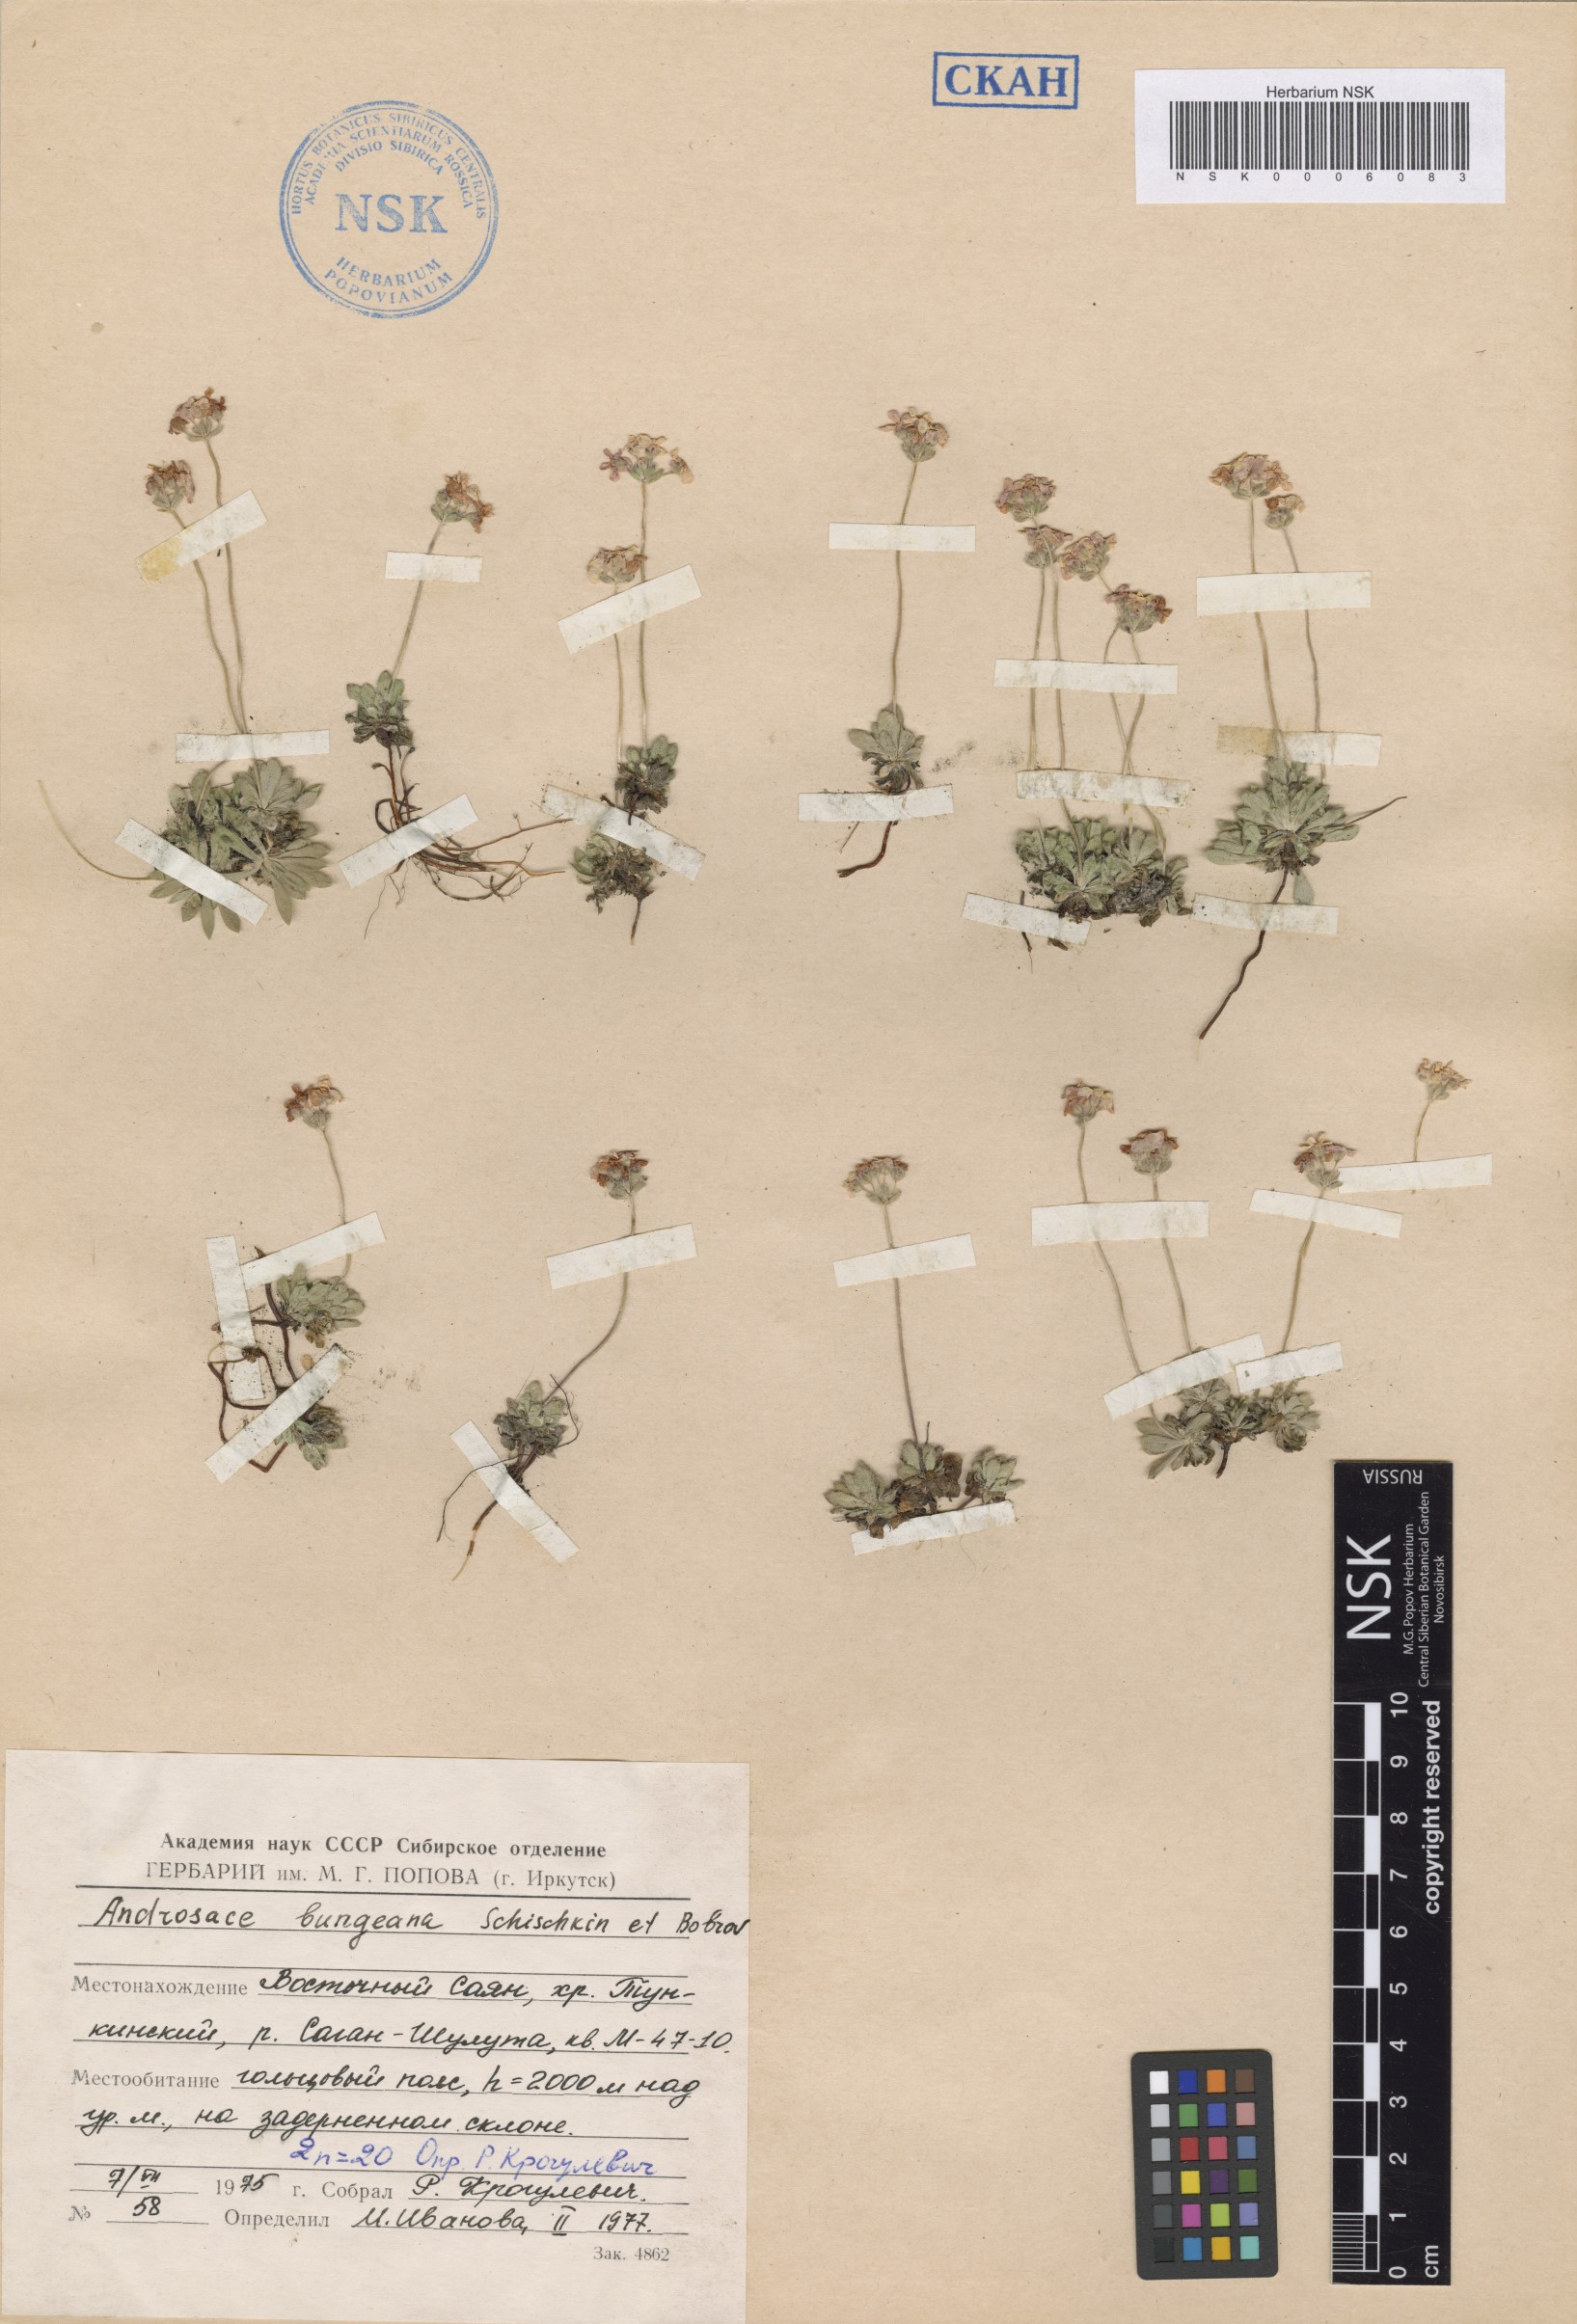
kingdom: Plantae
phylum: Tracheophyta
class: Magnoliopsida
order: Ericales
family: Primulaceae
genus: Androsace
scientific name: Androsace bungeana
